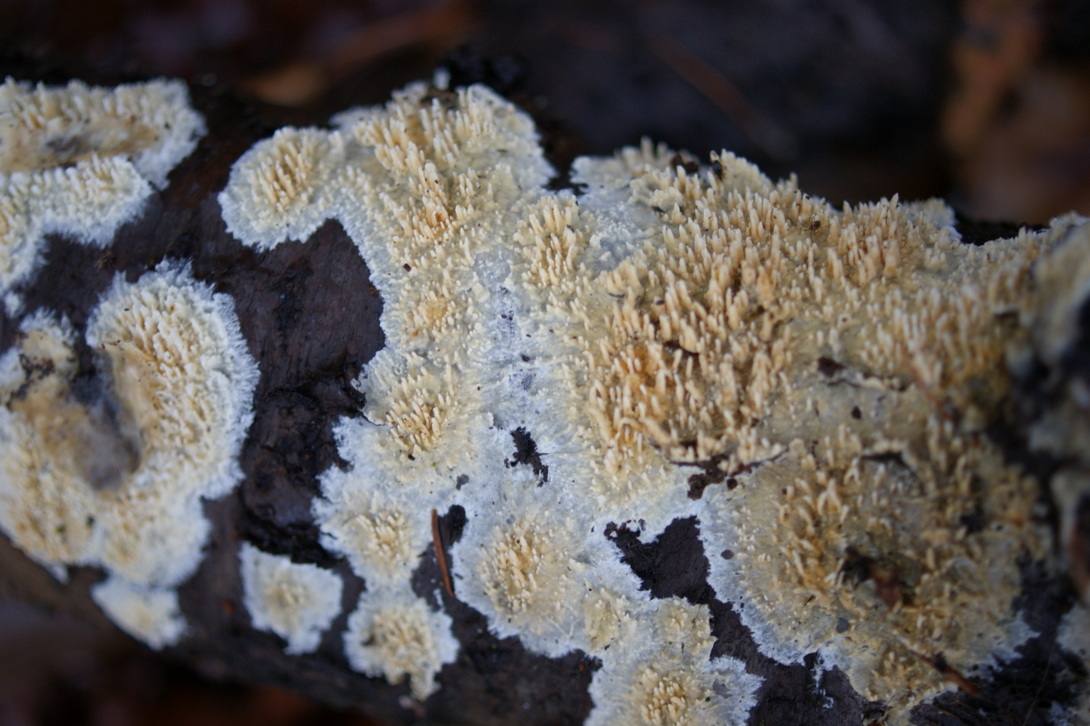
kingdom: Fungi
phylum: Basidiomycota
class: Agaricomycetes
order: Hymenochaetales
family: Schizoporaceae
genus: Xylodon
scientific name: Xylodon radula
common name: grovtandet kalkskind
